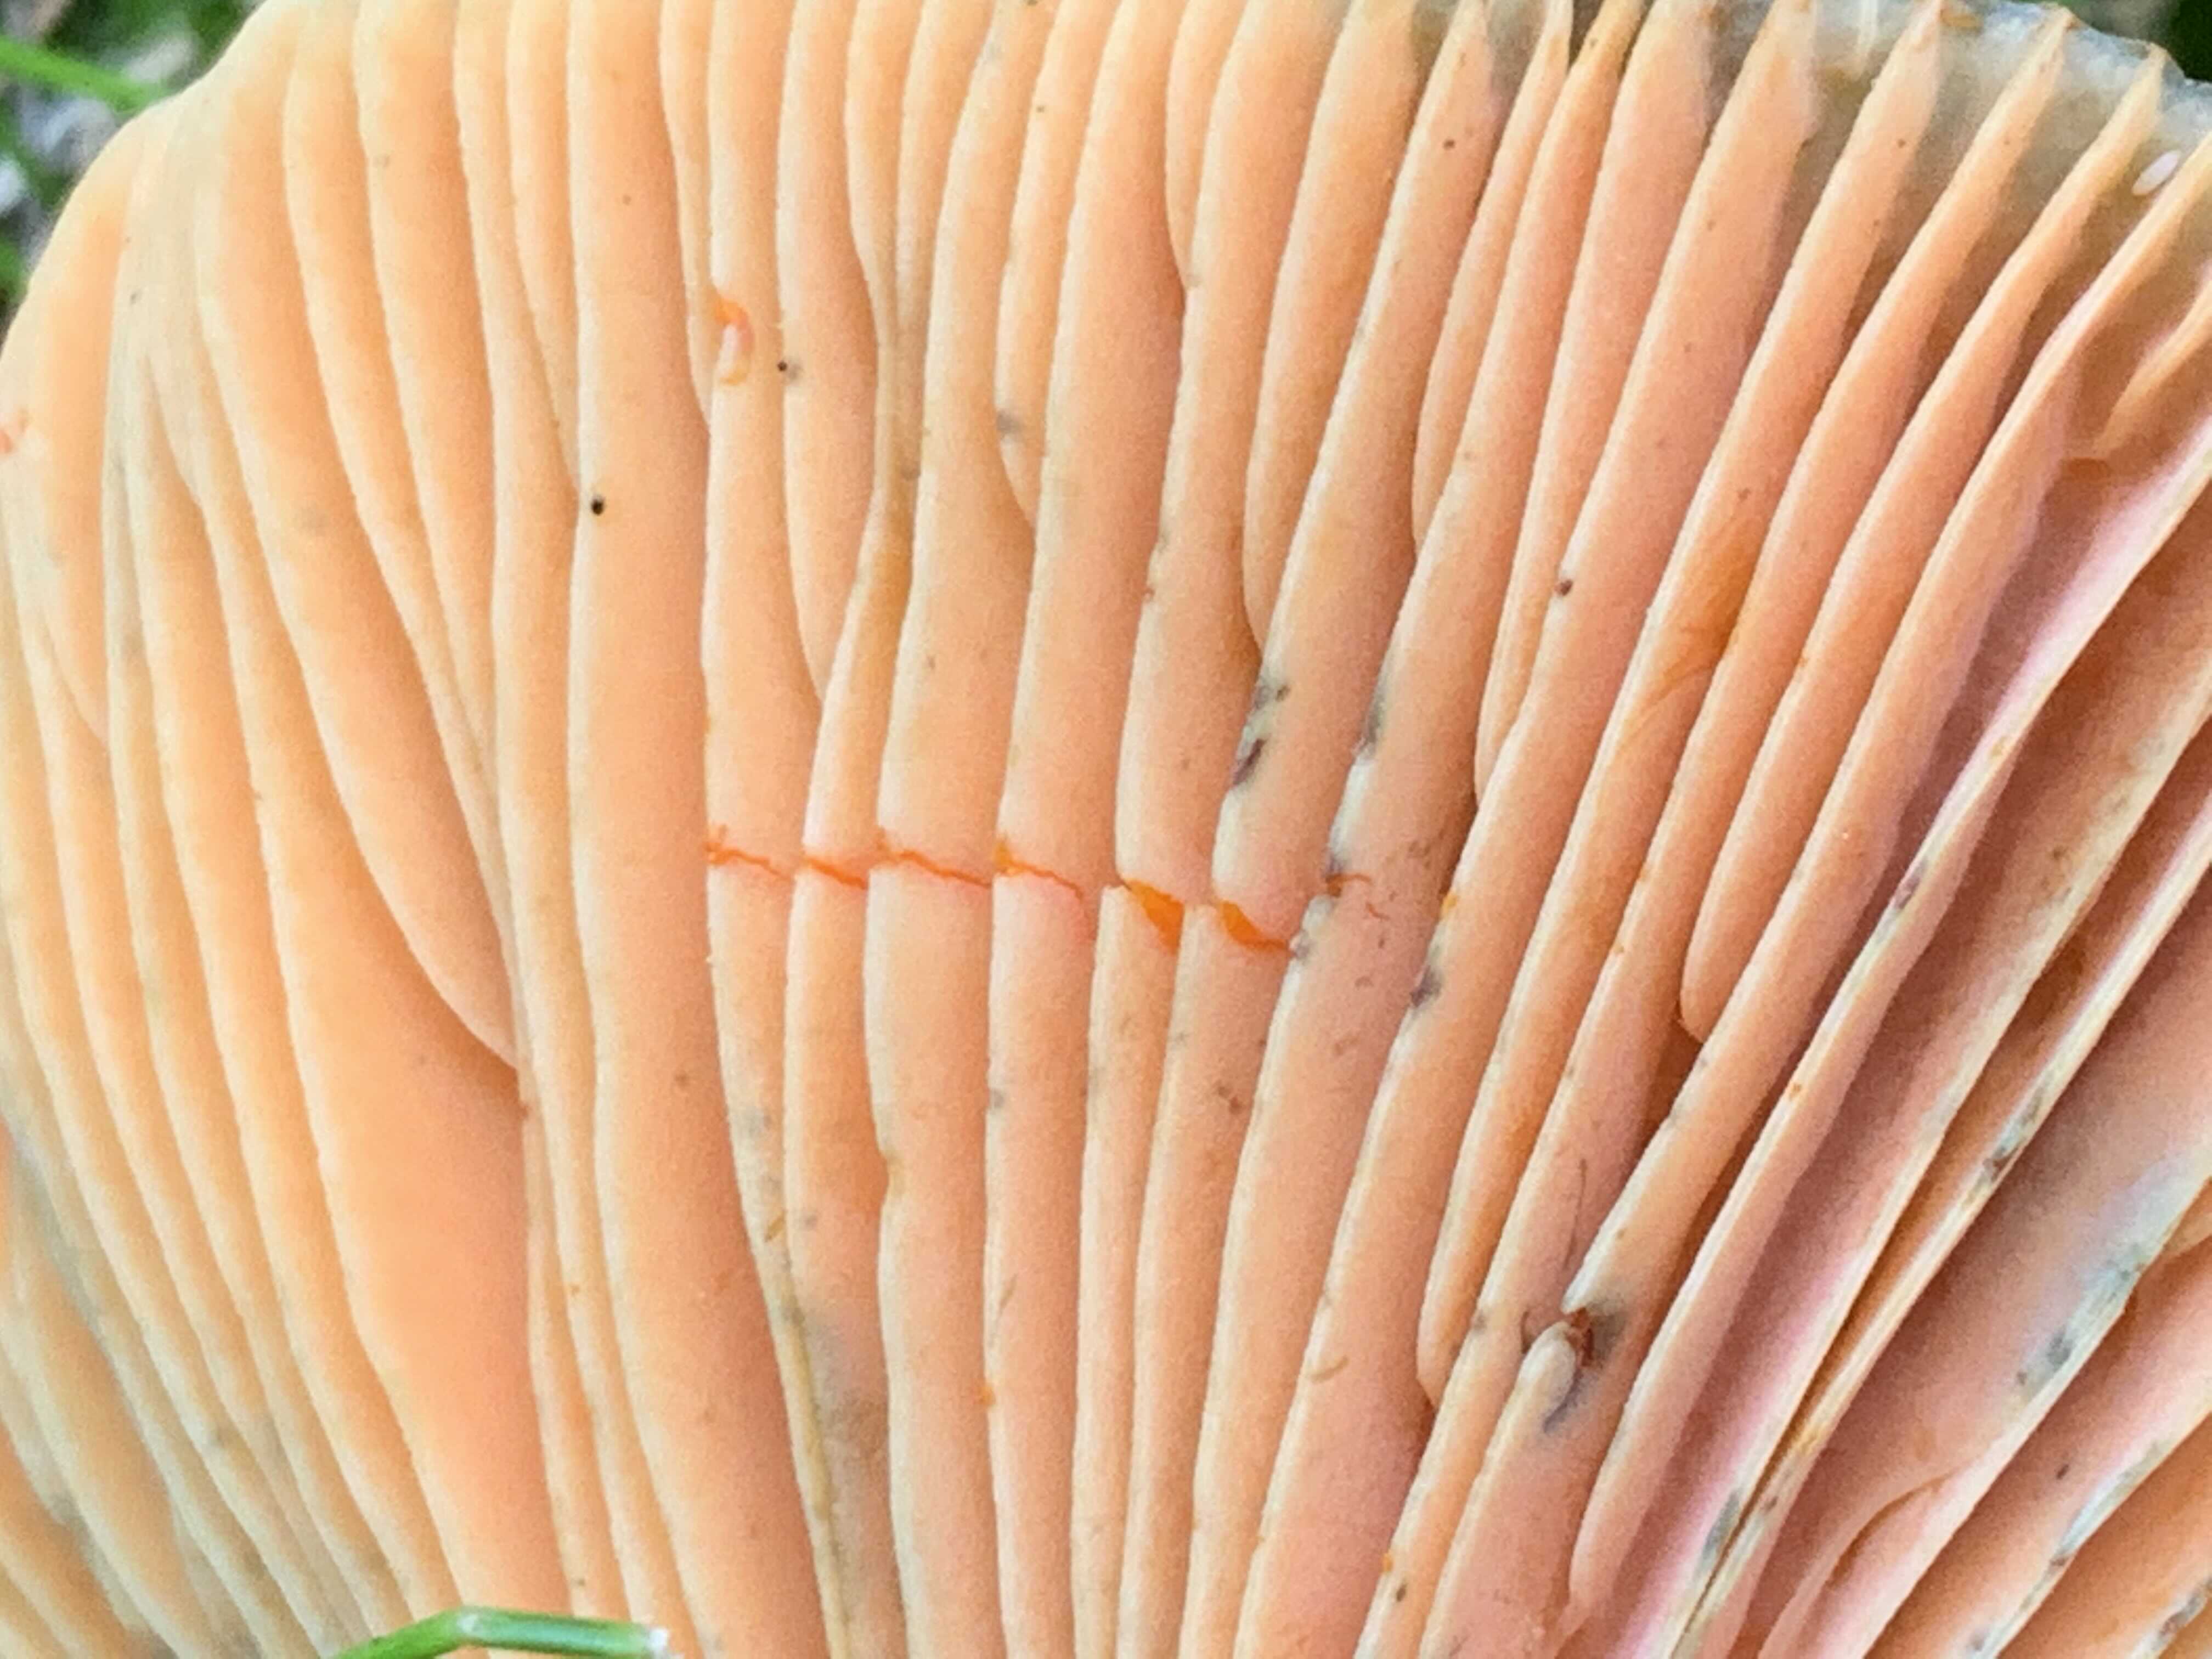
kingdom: Fungi
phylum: Basidiomycota
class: Agaricomycetes
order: Russulales
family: Russulaceae
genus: Lactarius
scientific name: Lactarius deterrimus
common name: gran-mælkehat
